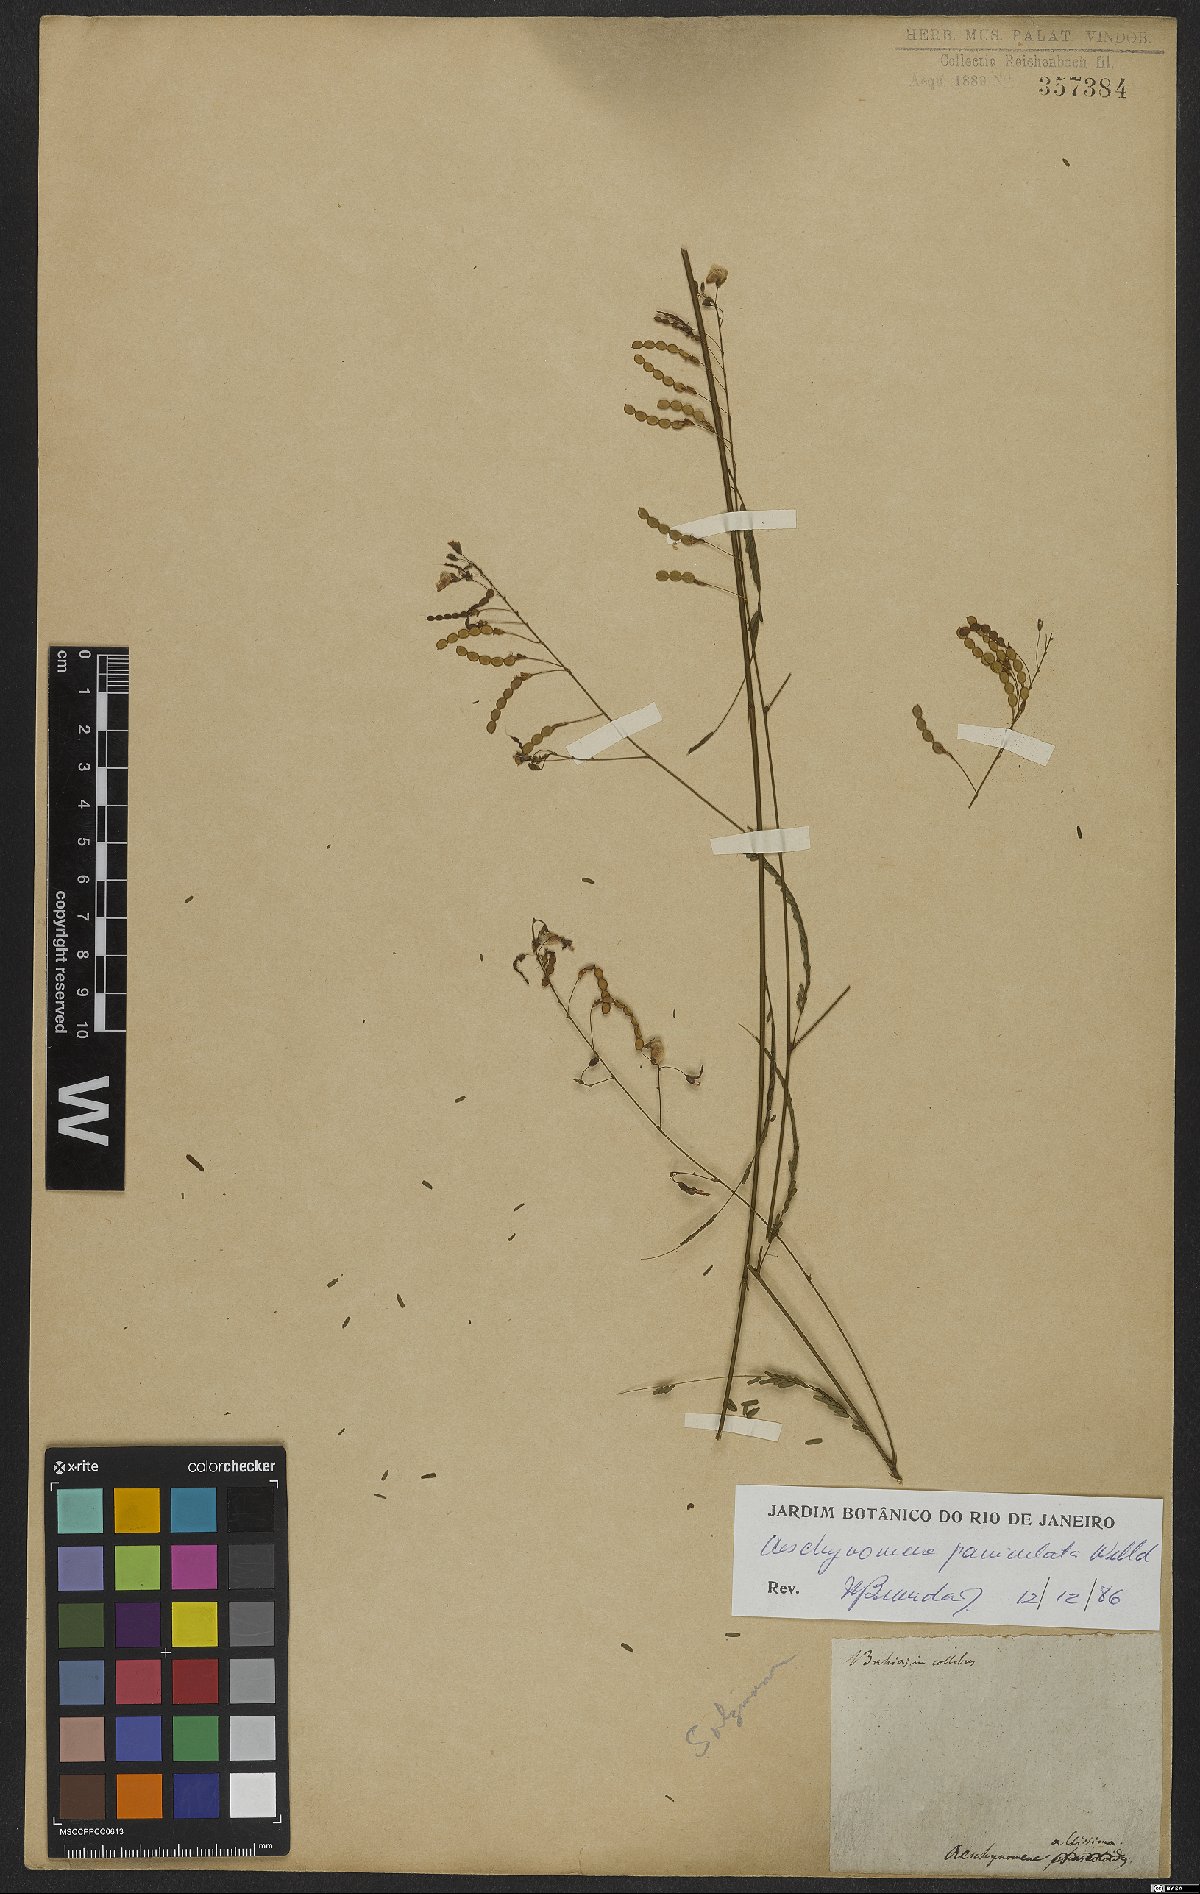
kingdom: Plantae
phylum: Tracheophyta
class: Magnoliopsida
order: Fabales
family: Fabaceae
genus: Ctenodon
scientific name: Ctenodon paniculatus
